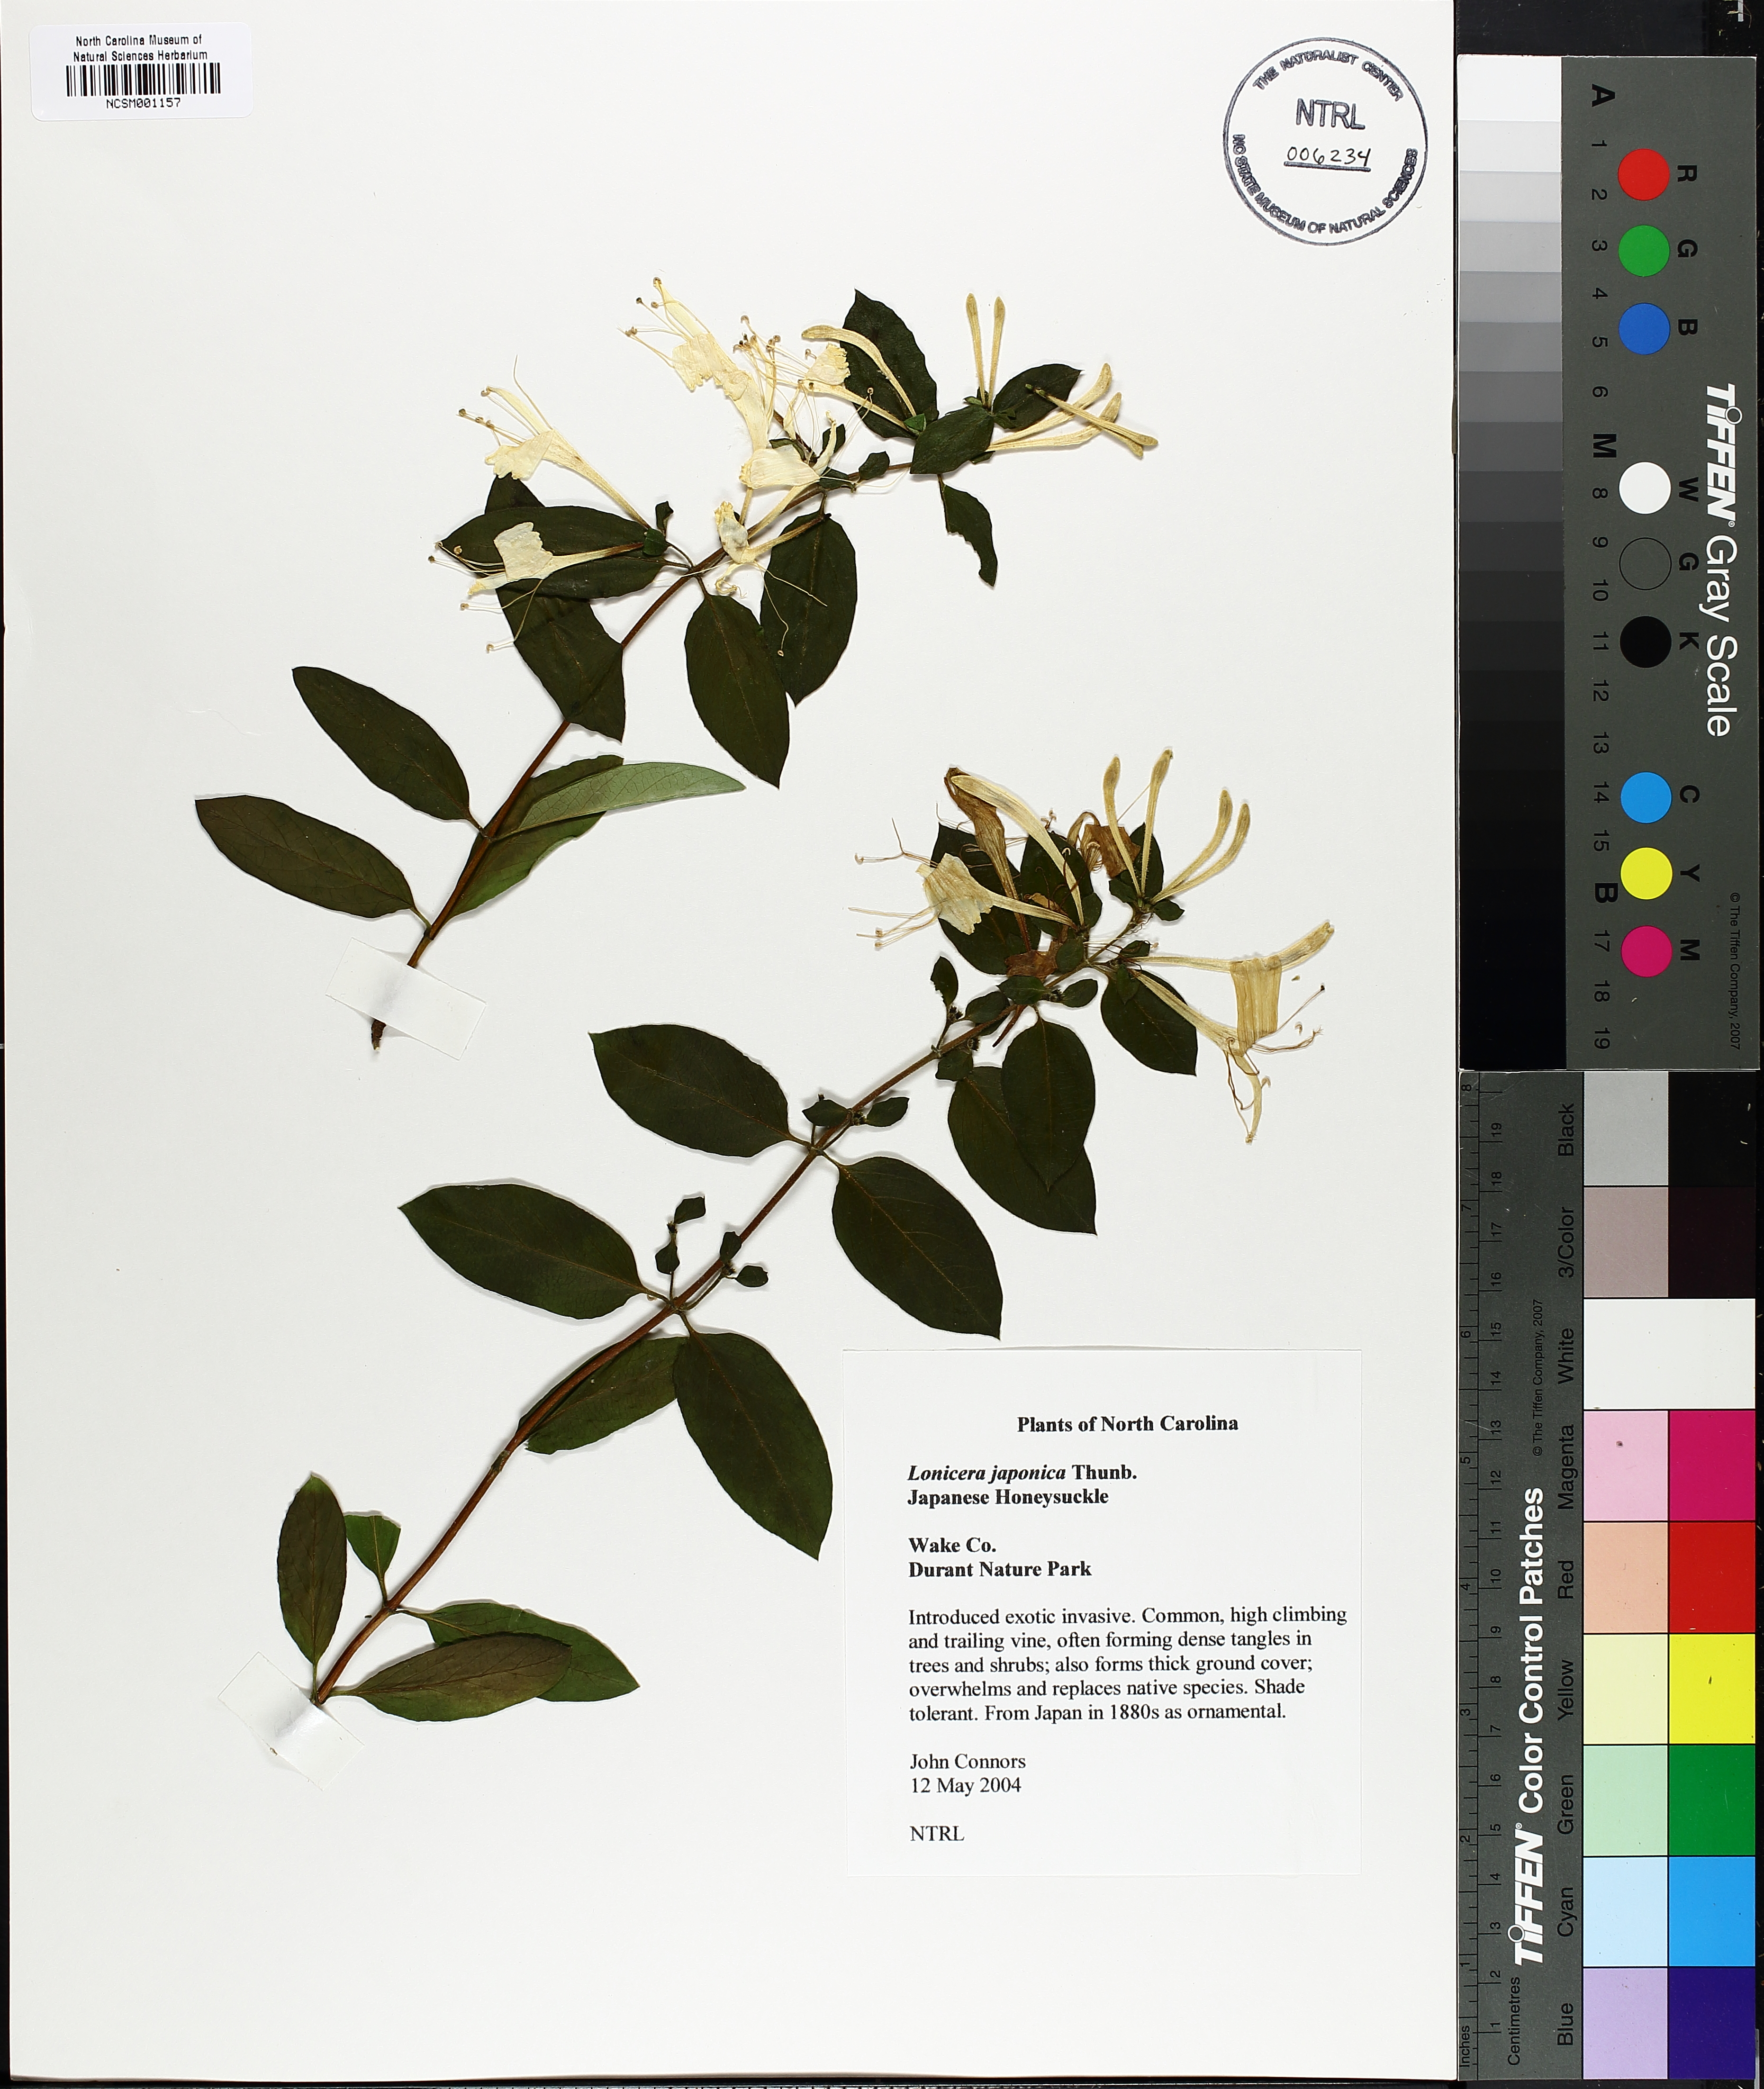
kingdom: Plantae
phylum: Tracheophyta
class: Magnoliopsida
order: Dipsacales
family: Caprifoliaceae
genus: Lonicera
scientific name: Lonicera japonica
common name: Japanese honeysuckle
